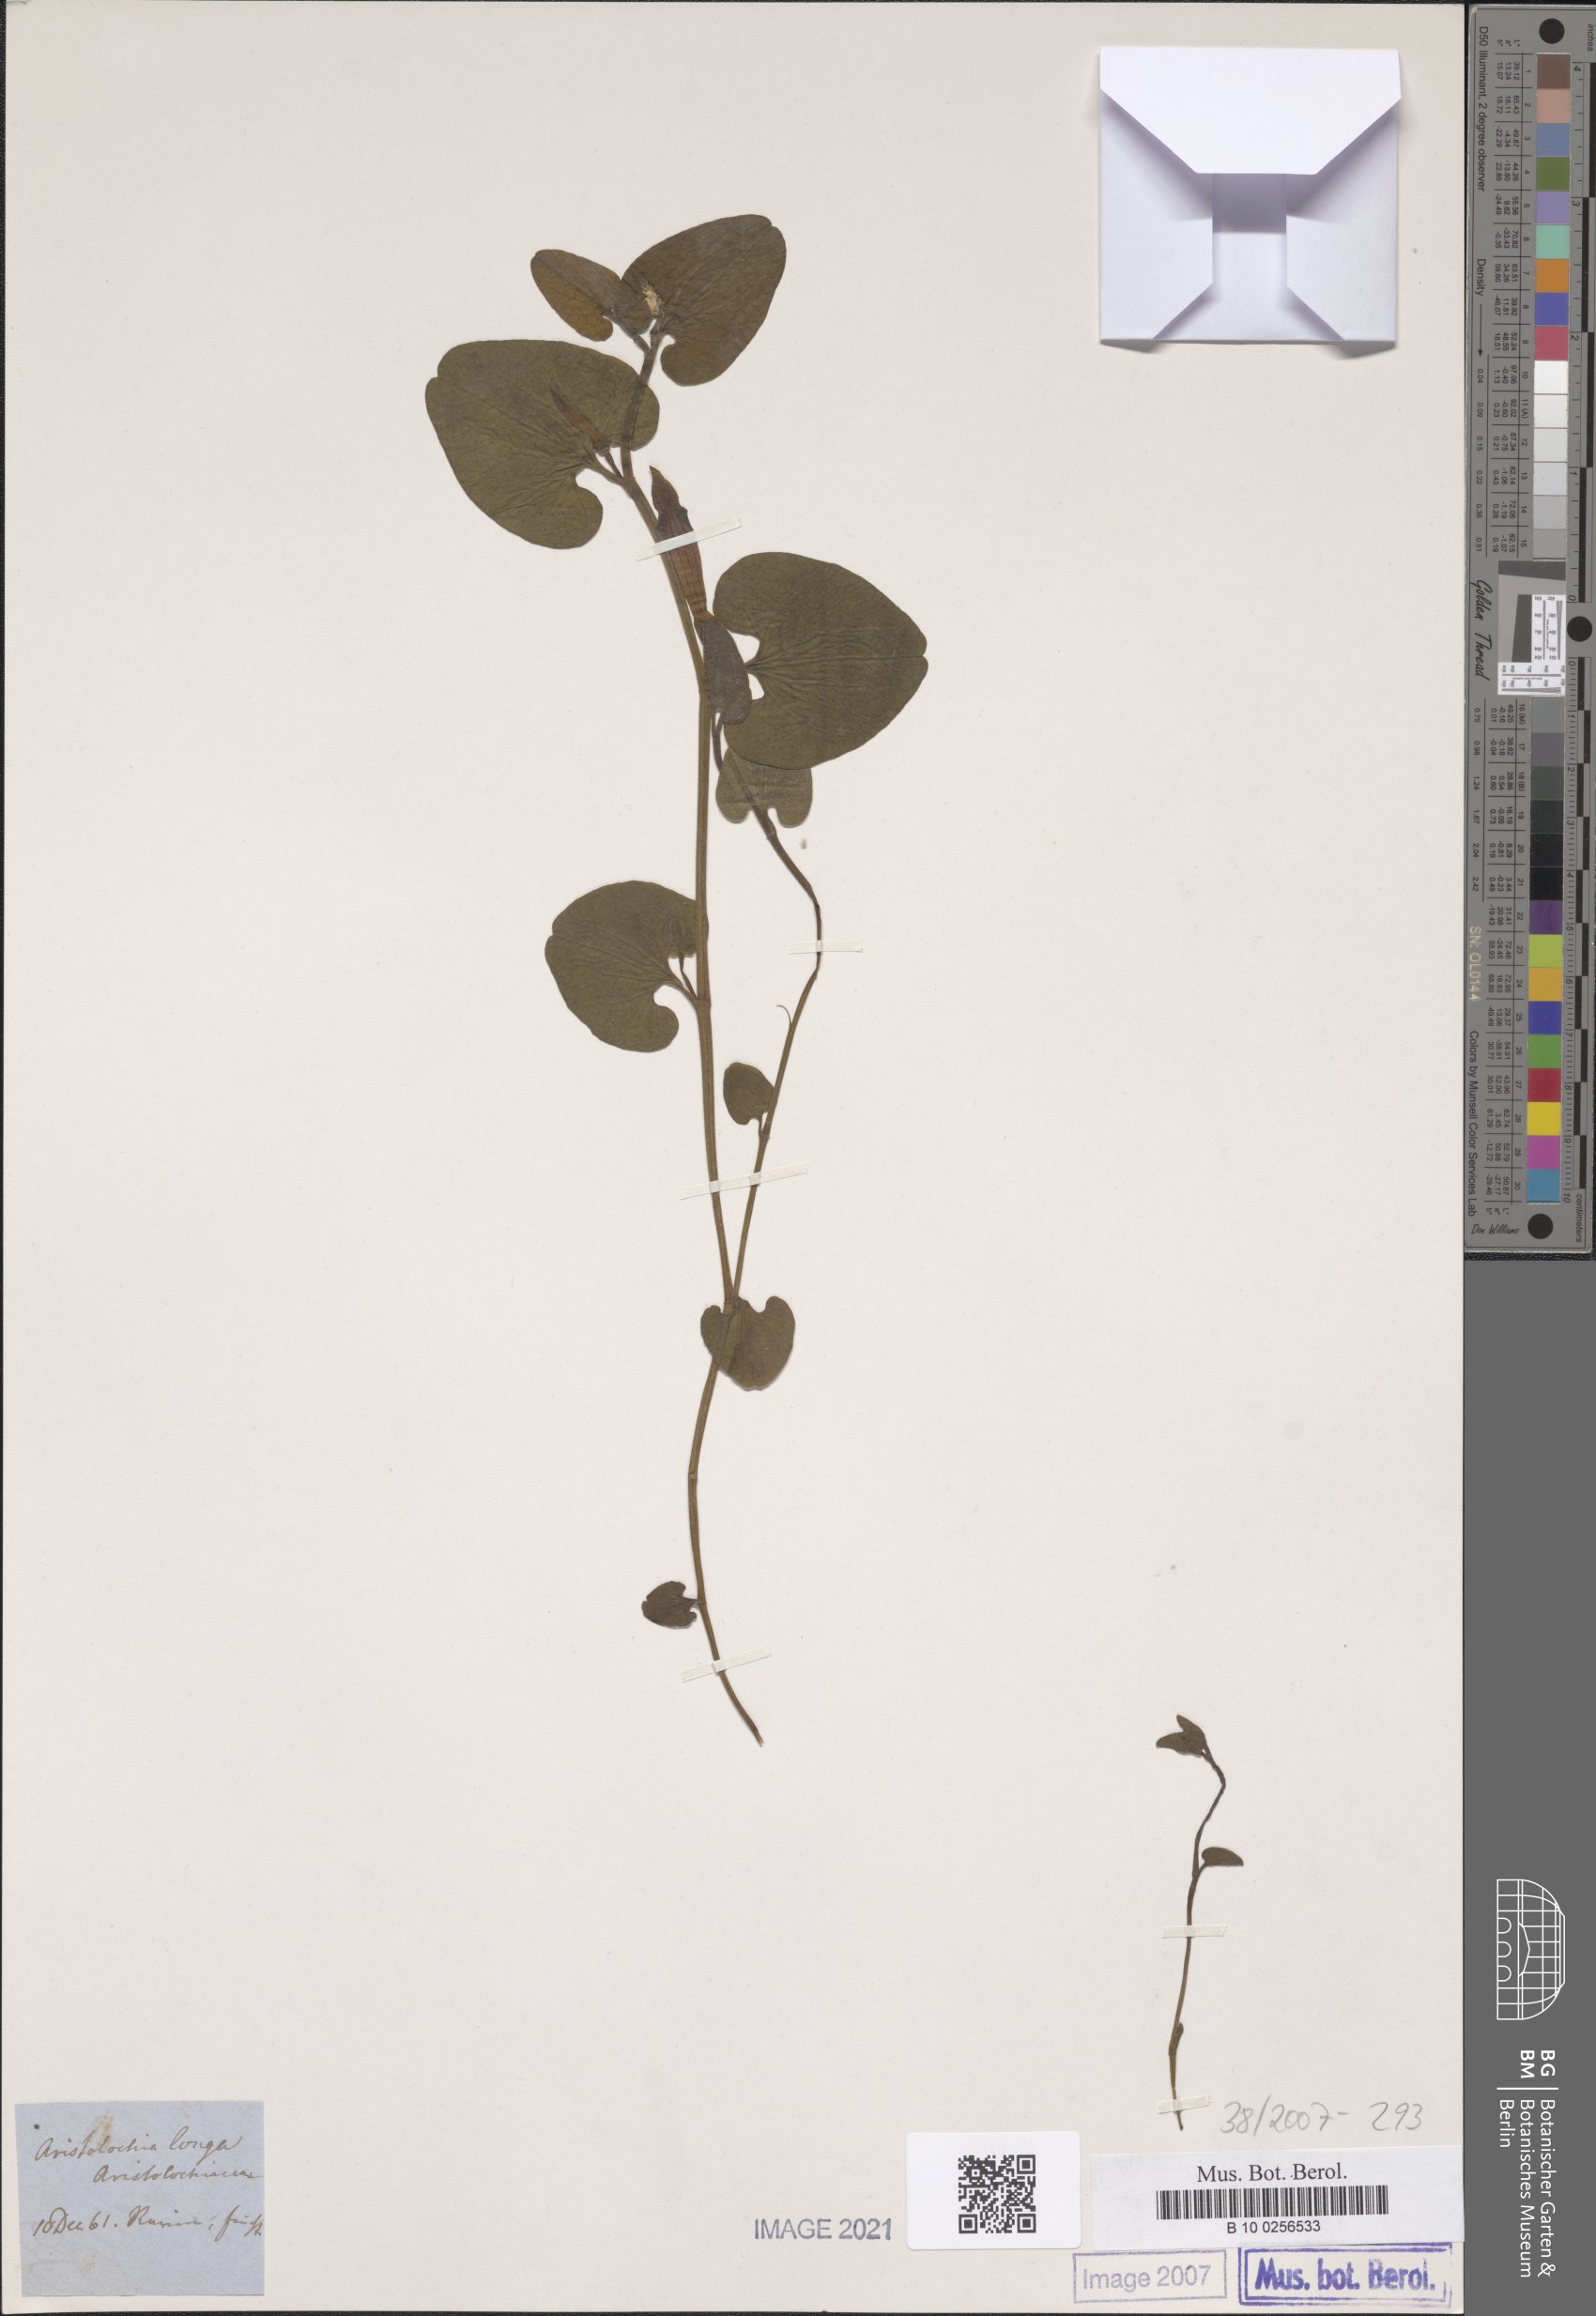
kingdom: Plantae
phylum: Tracheophyta
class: Magnoliopsida
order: Piperales
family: Aristolochiaceae
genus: Aristolochia
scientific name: Aristolochia fontanesii
